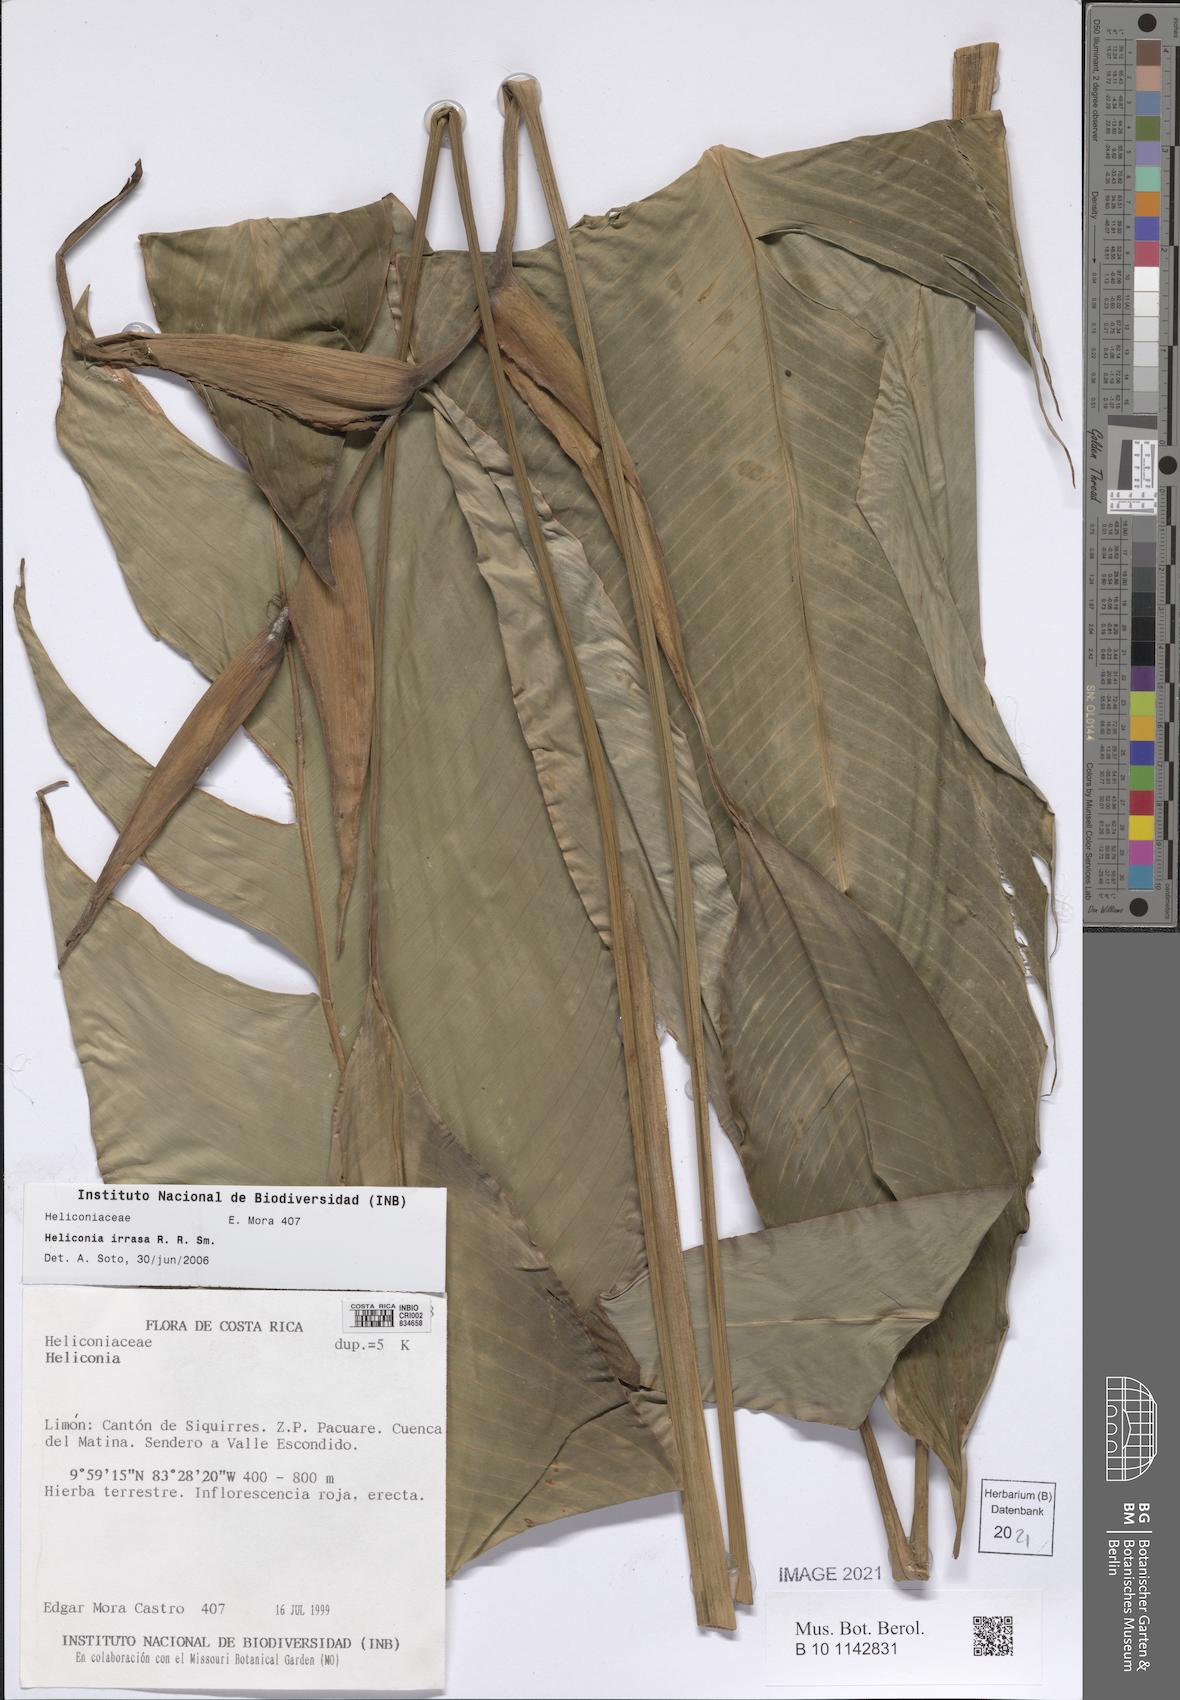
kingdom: Plantae
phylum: Tracheophyta
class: Liliopsida
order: Zingiberales
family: Heliconiaceae
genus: Heliconia
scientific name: Heliconia irrasa
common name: Wild plantain
